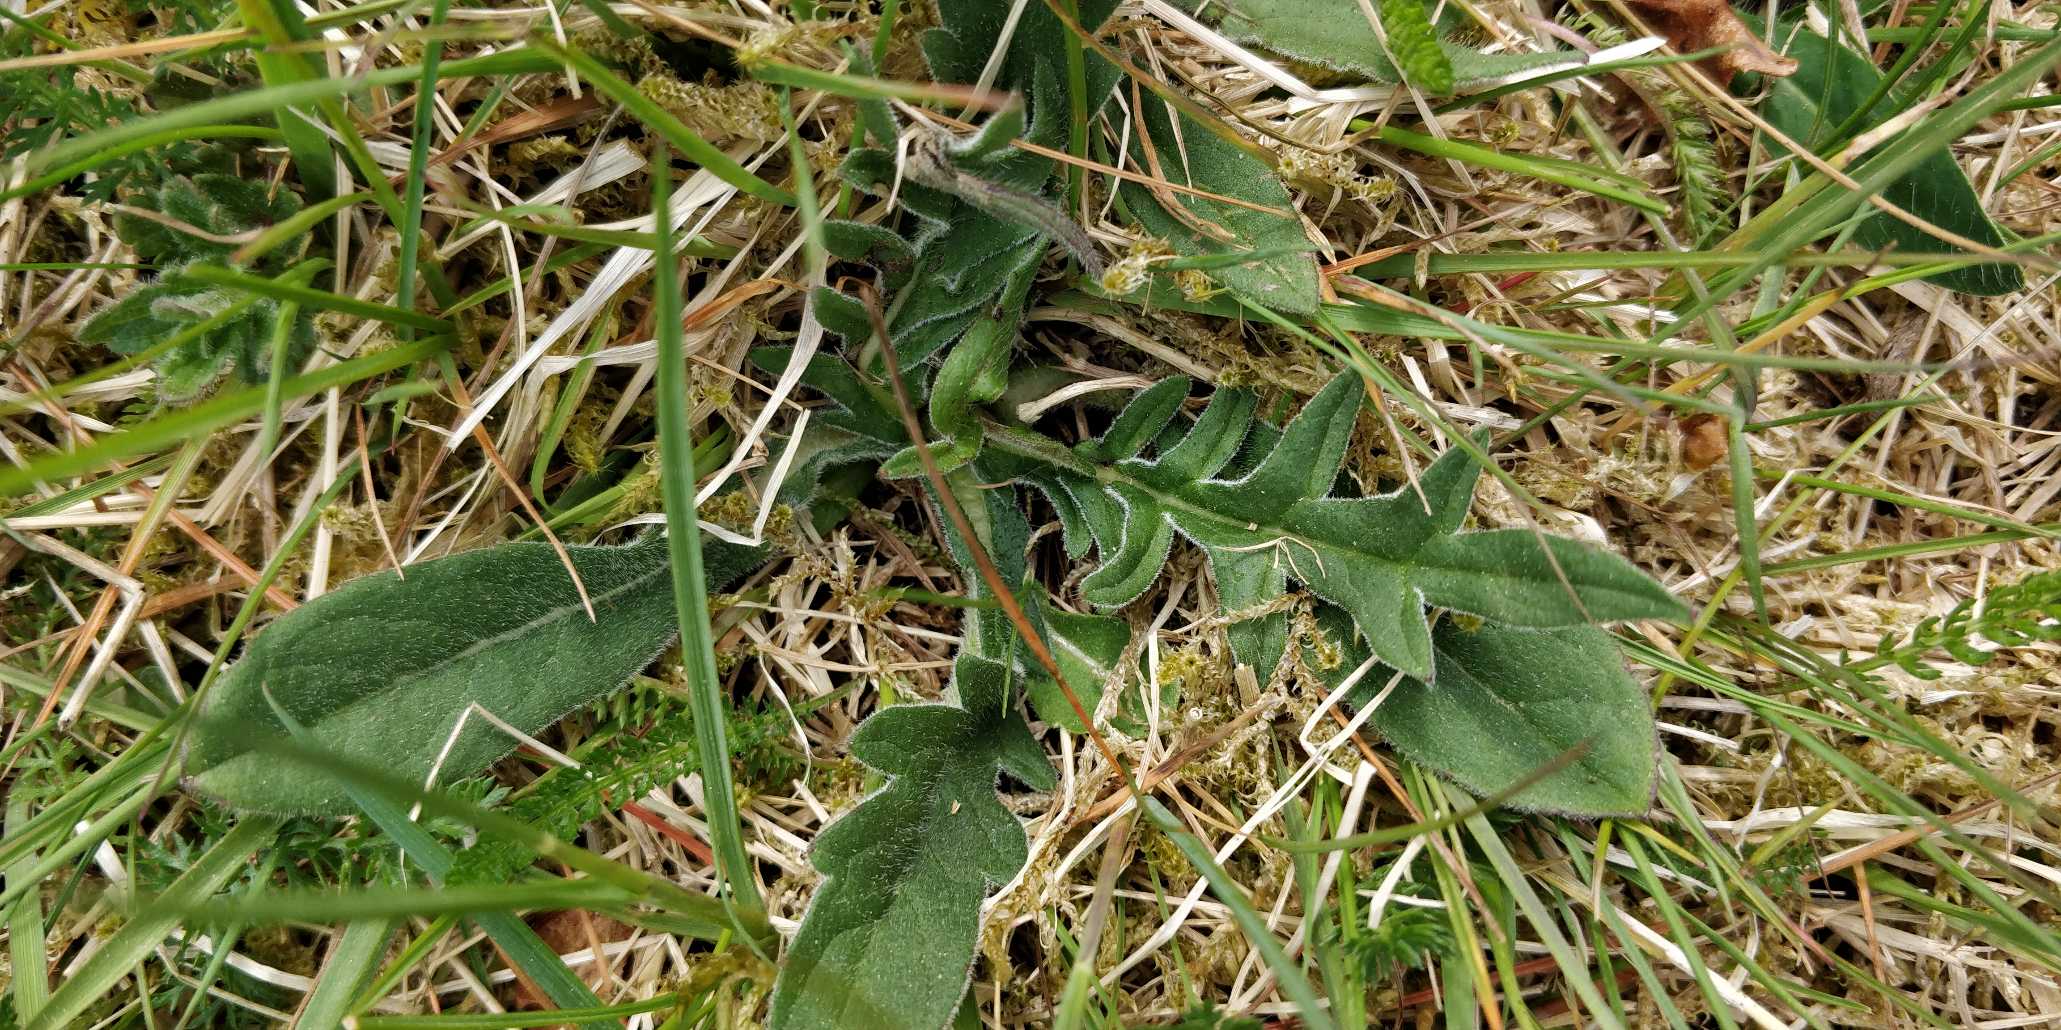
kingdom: Plantae
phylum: Tracheophyta
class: Magnoliopsida
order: Dipsacales
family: Caprifoliaceae
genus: Knautia
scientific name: Knautia arvensis
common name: Blåhat
